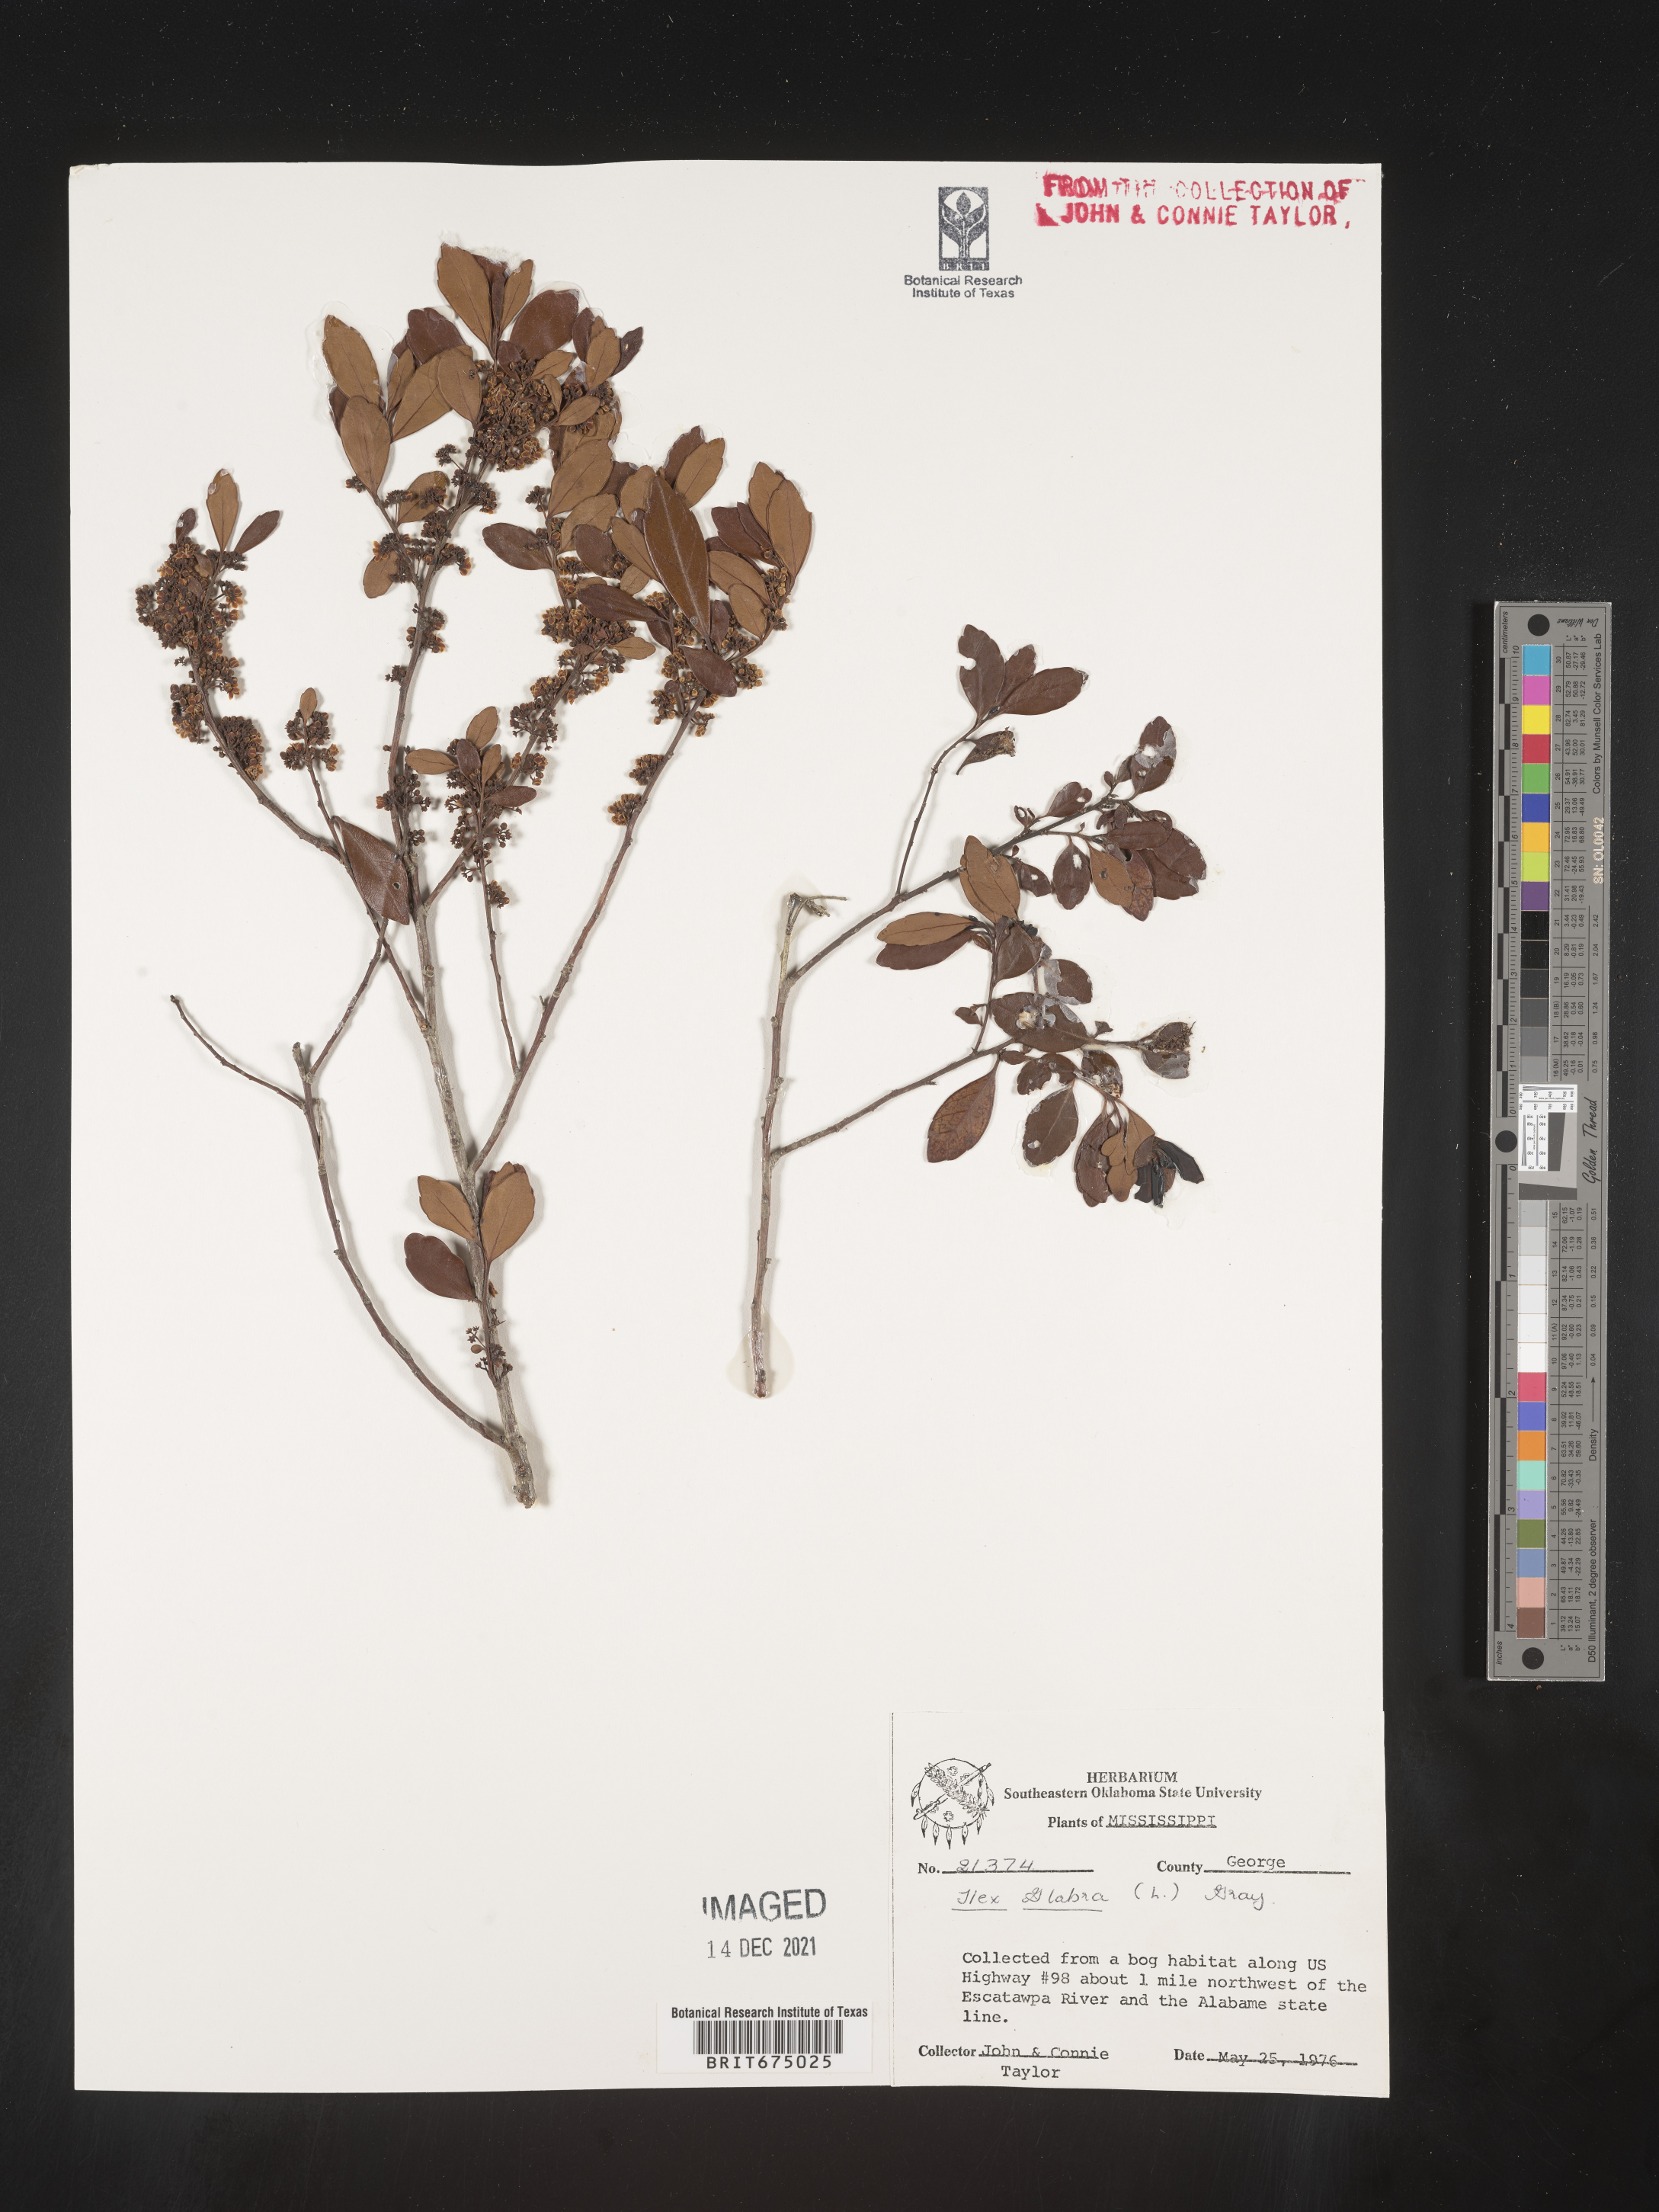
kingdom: Plantae
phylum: Tracheophyta
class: Magnoliopsida
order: Aquifoliales
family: Aquifoliaceae
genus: Ilex
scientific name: Ilex glabra
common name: Bitter gallberry
